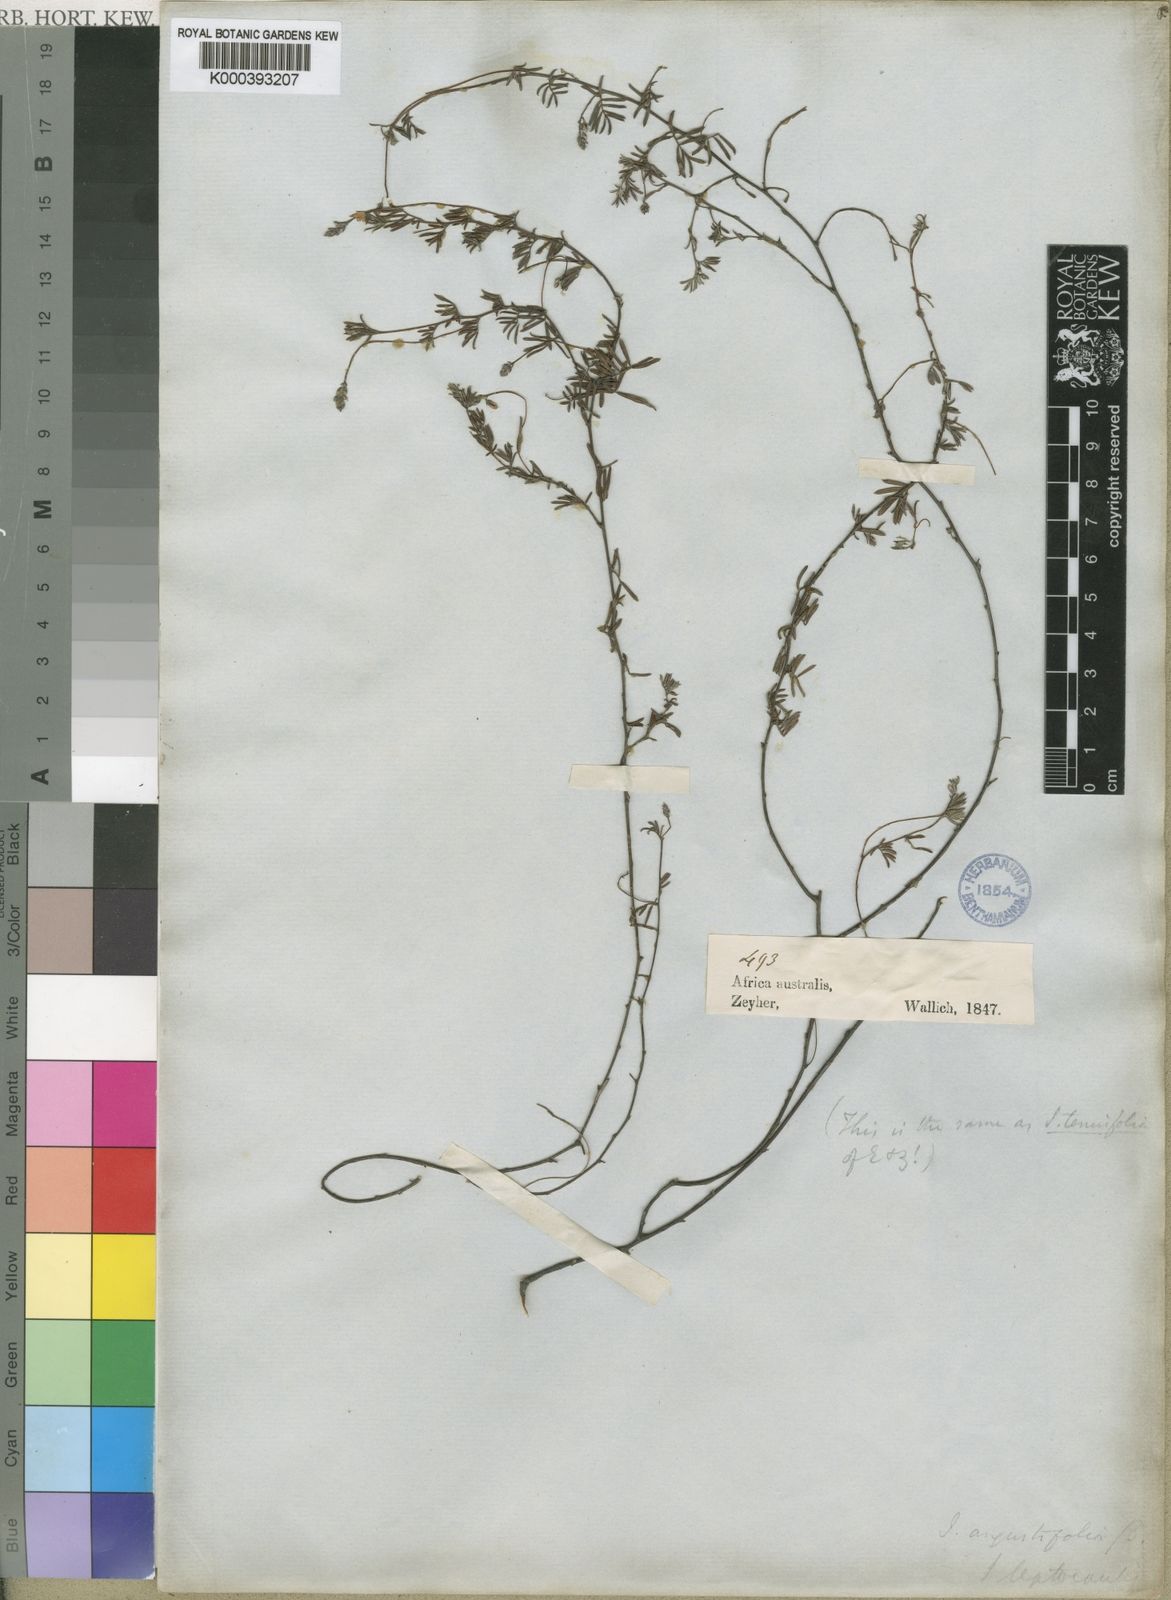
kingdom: Plantae
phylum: Tracheophyta
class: Magnoliopsida
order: Fabales
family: Fabaceae
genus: Indigofera
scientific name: Indigofera brachystachya
